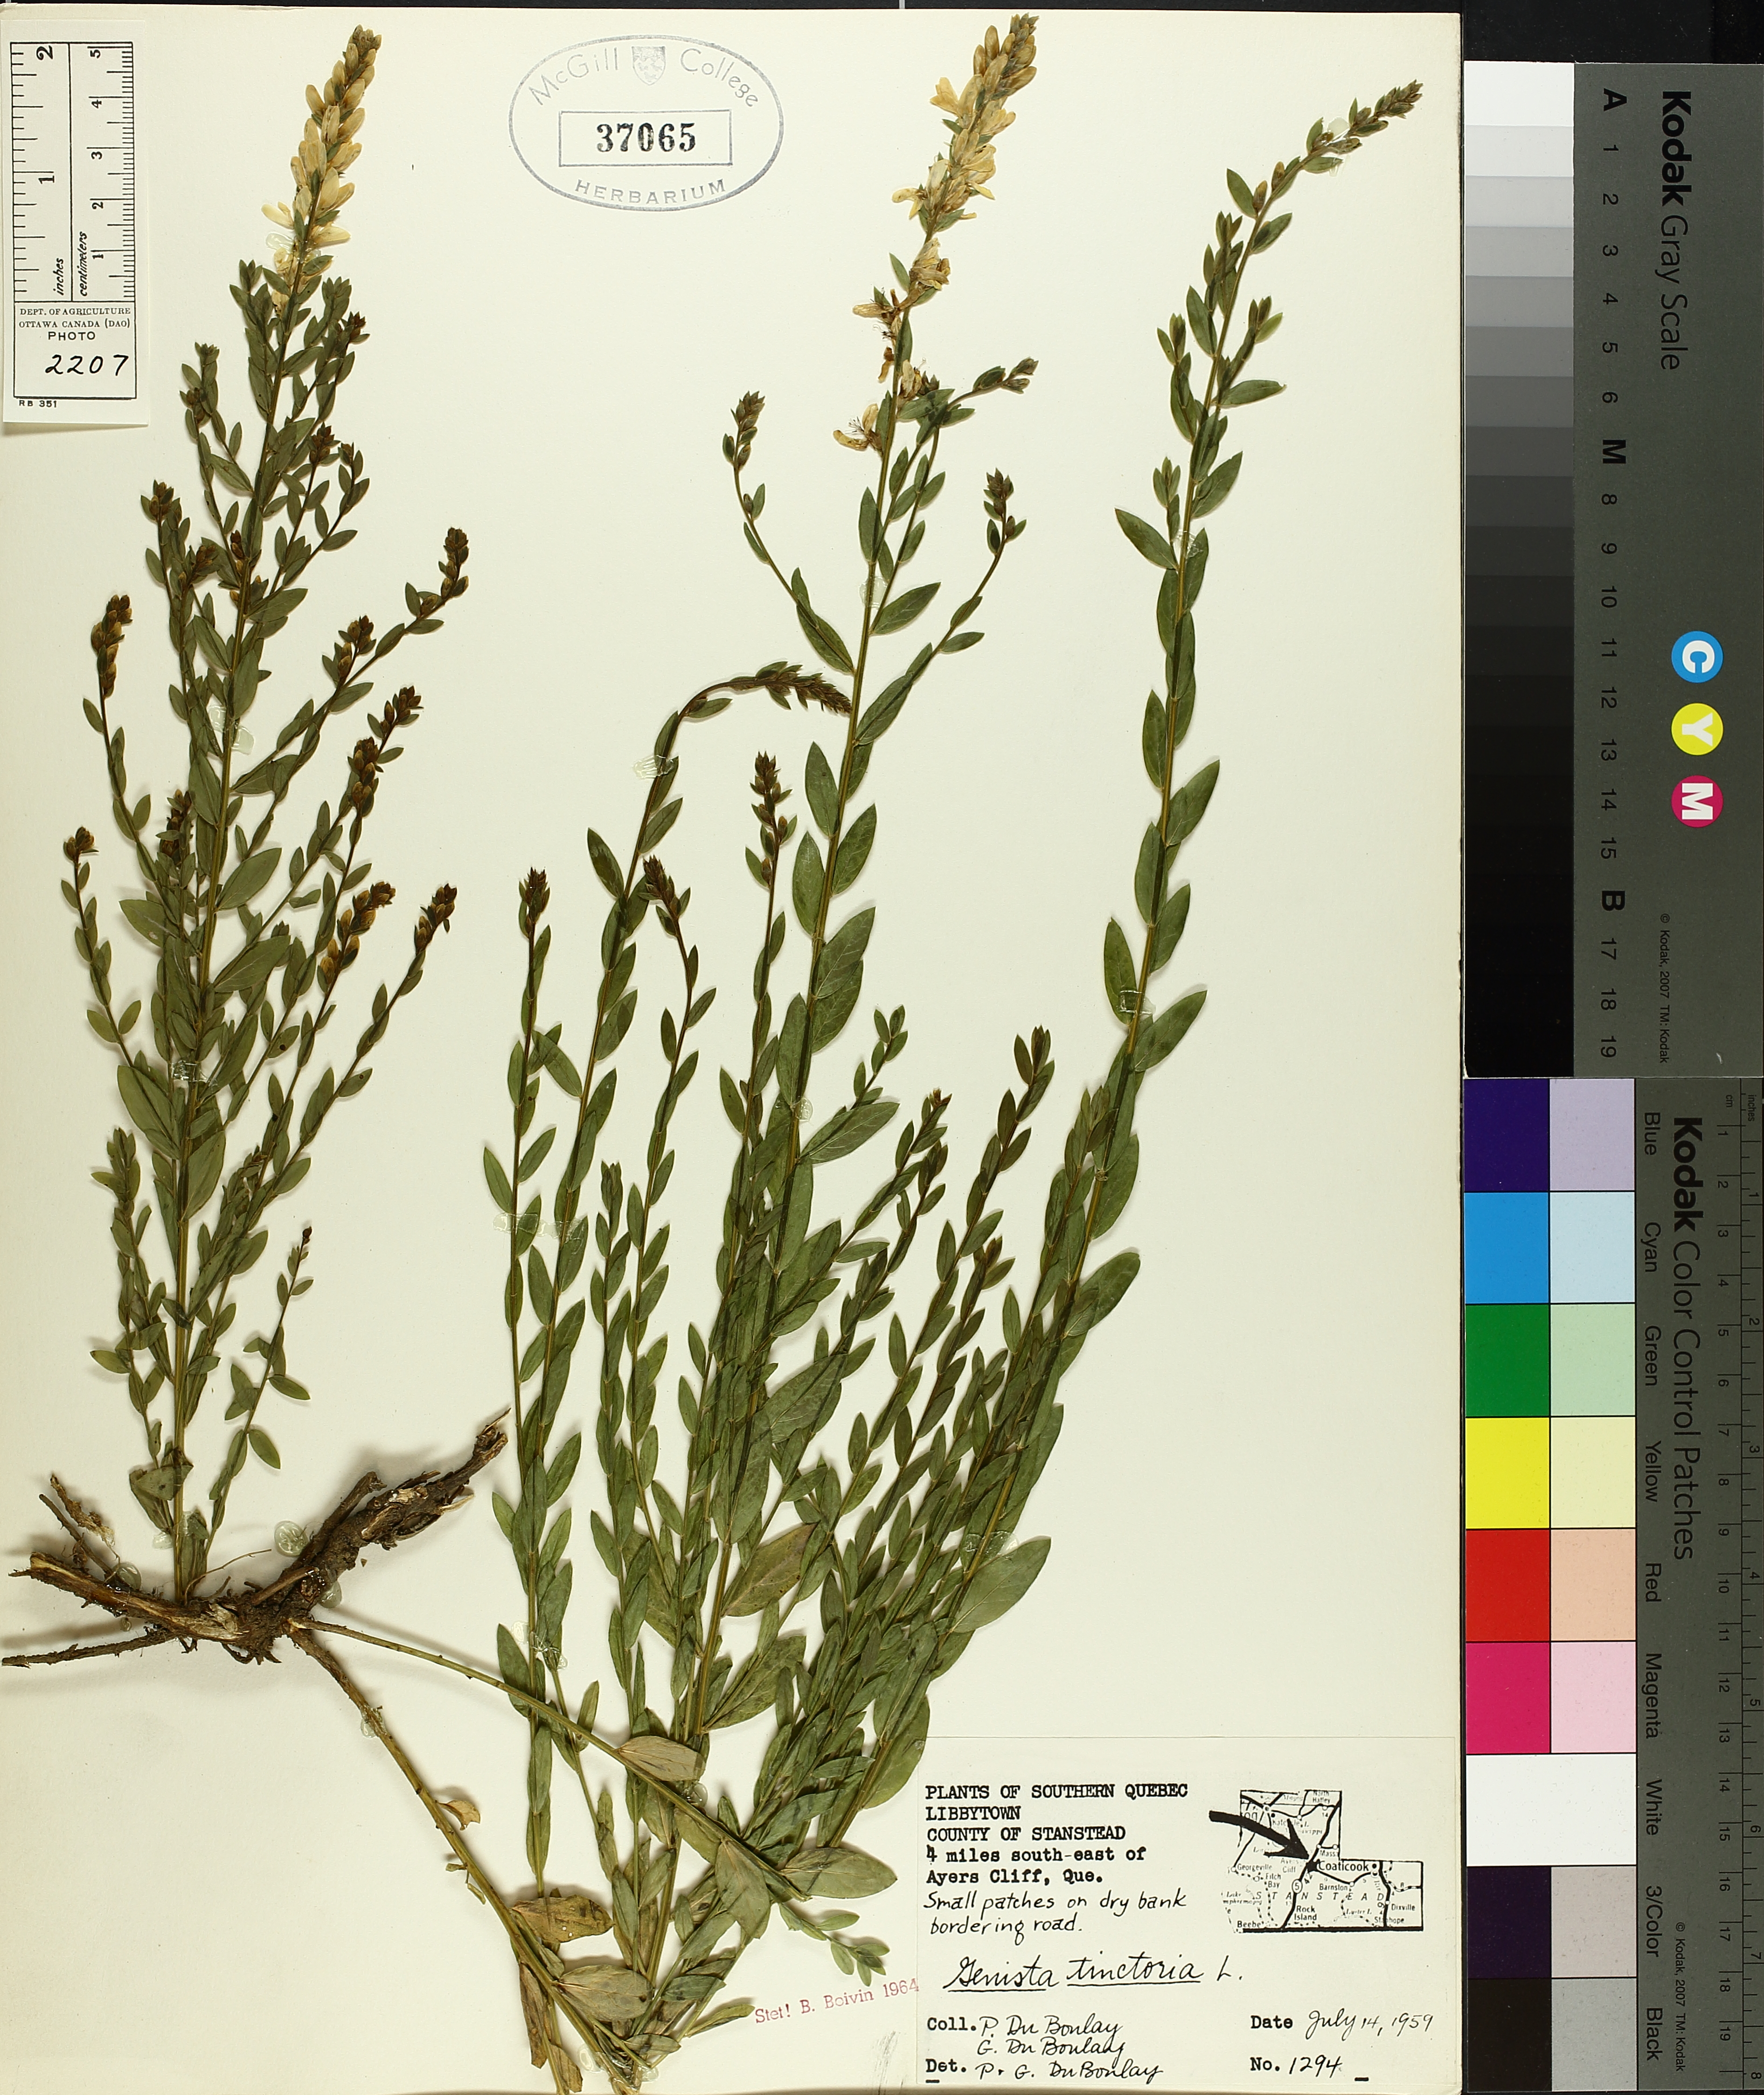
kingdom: Plantae
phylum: Tracheophyta
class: Magnoliopsida
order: Fabales
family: Fabaceae
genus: Genista
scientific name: Genista tinctoria
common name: Dyer's greenweed
